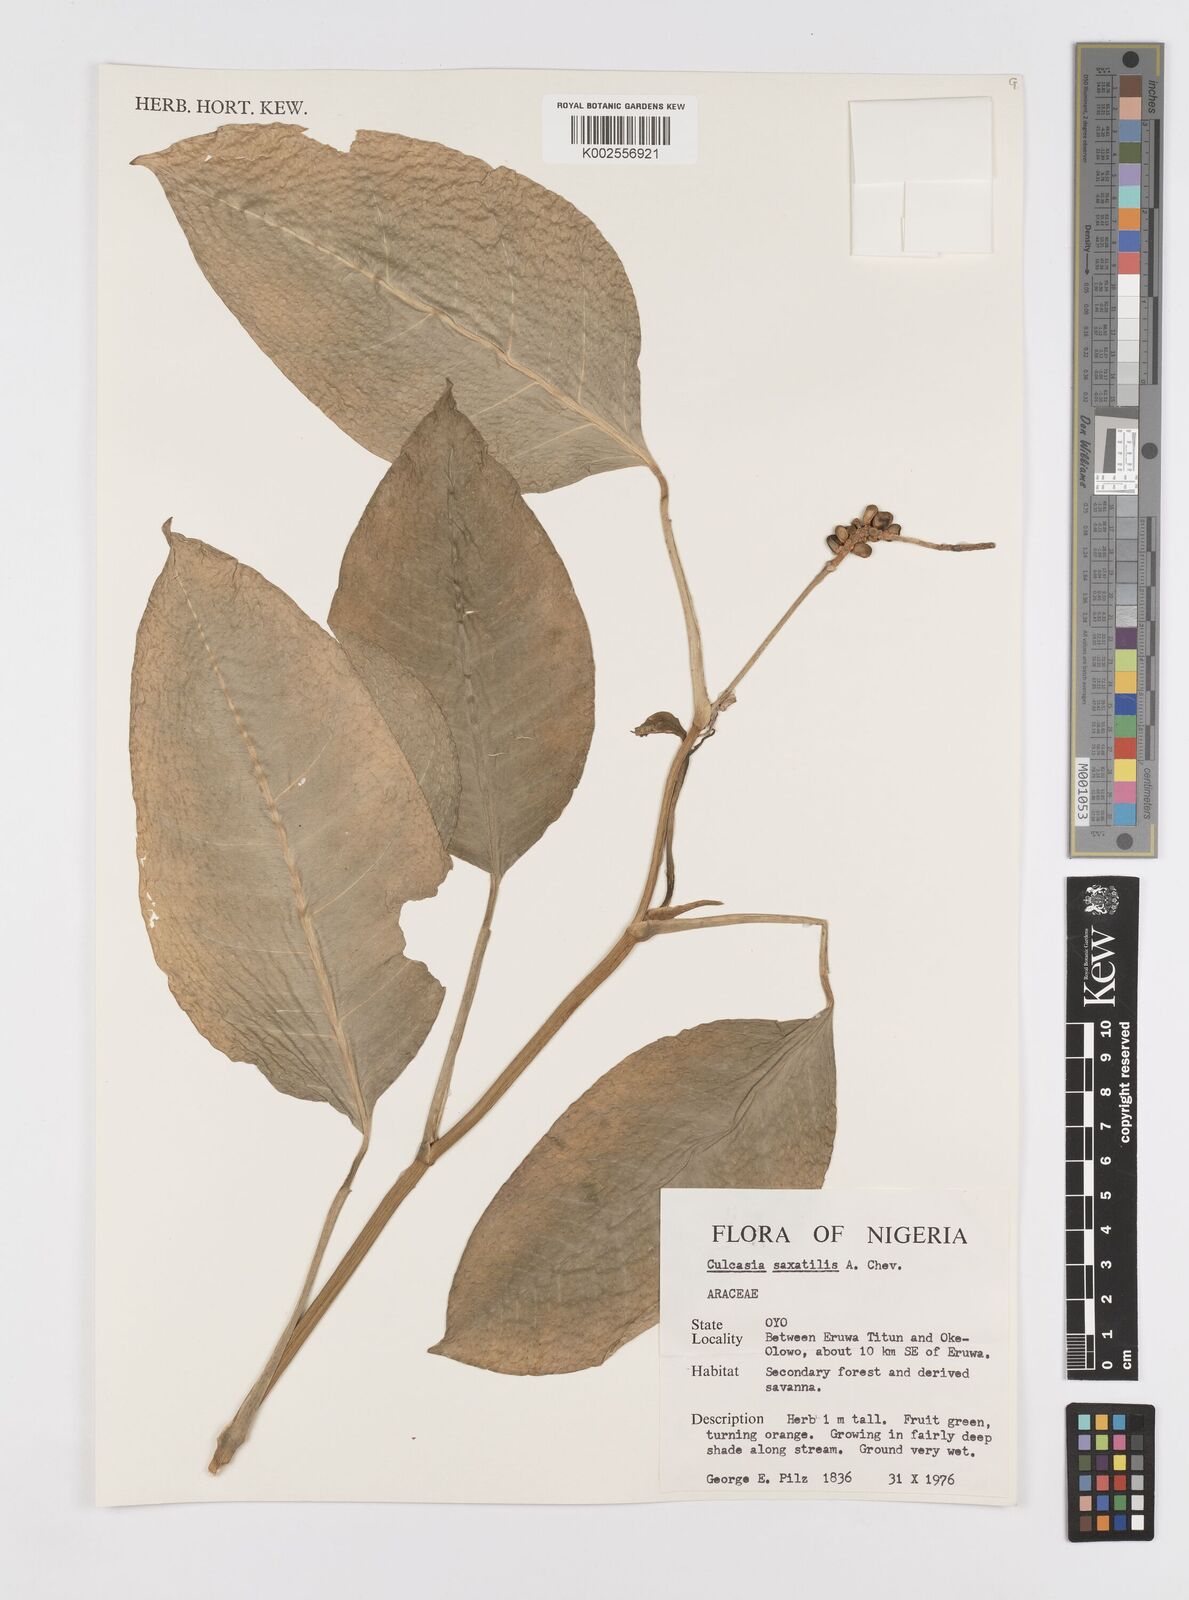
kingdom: Plantae
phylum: Tracheophyta
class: Liliopsida
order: Alismatales
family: Araceae
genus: Culcasia
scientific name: Culcasia scandens
